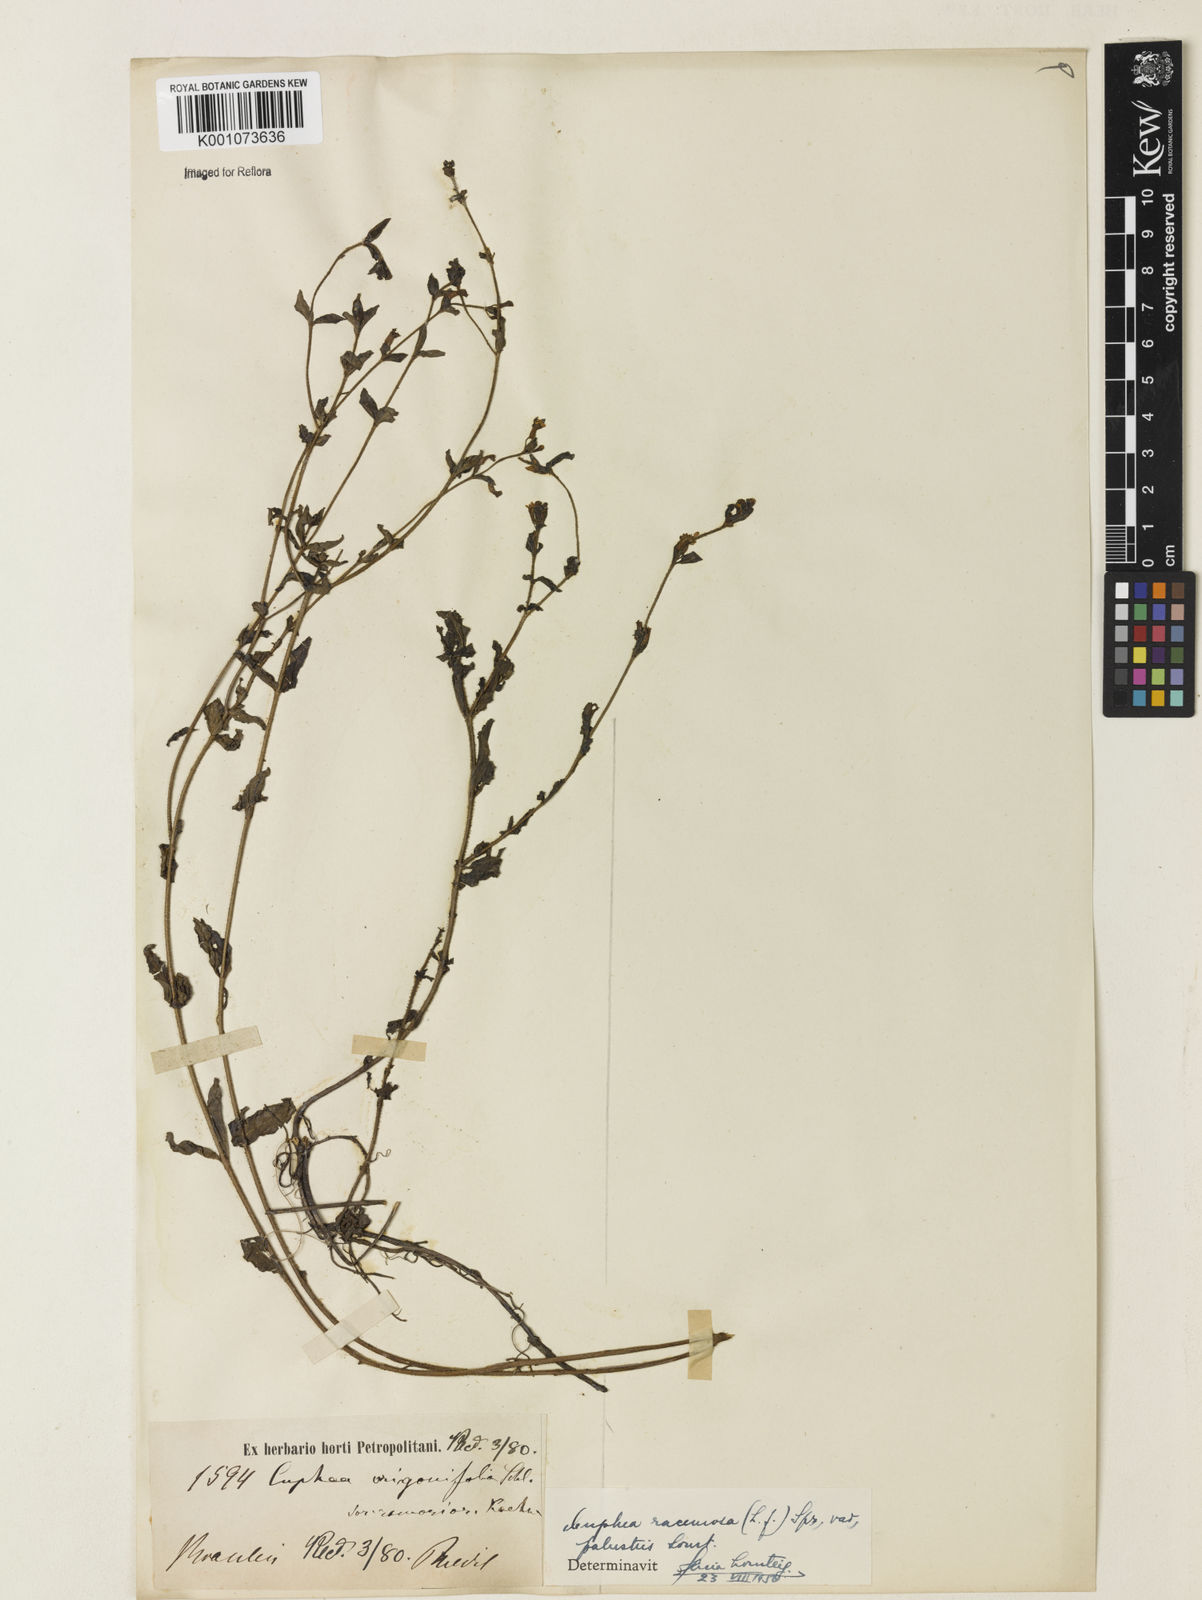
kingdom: Plantae
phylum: Tracheophyta
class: Magnoliopsida
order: Myrtales
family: Lythraceae
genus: Cuphea
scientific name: Cuphea racemosa
